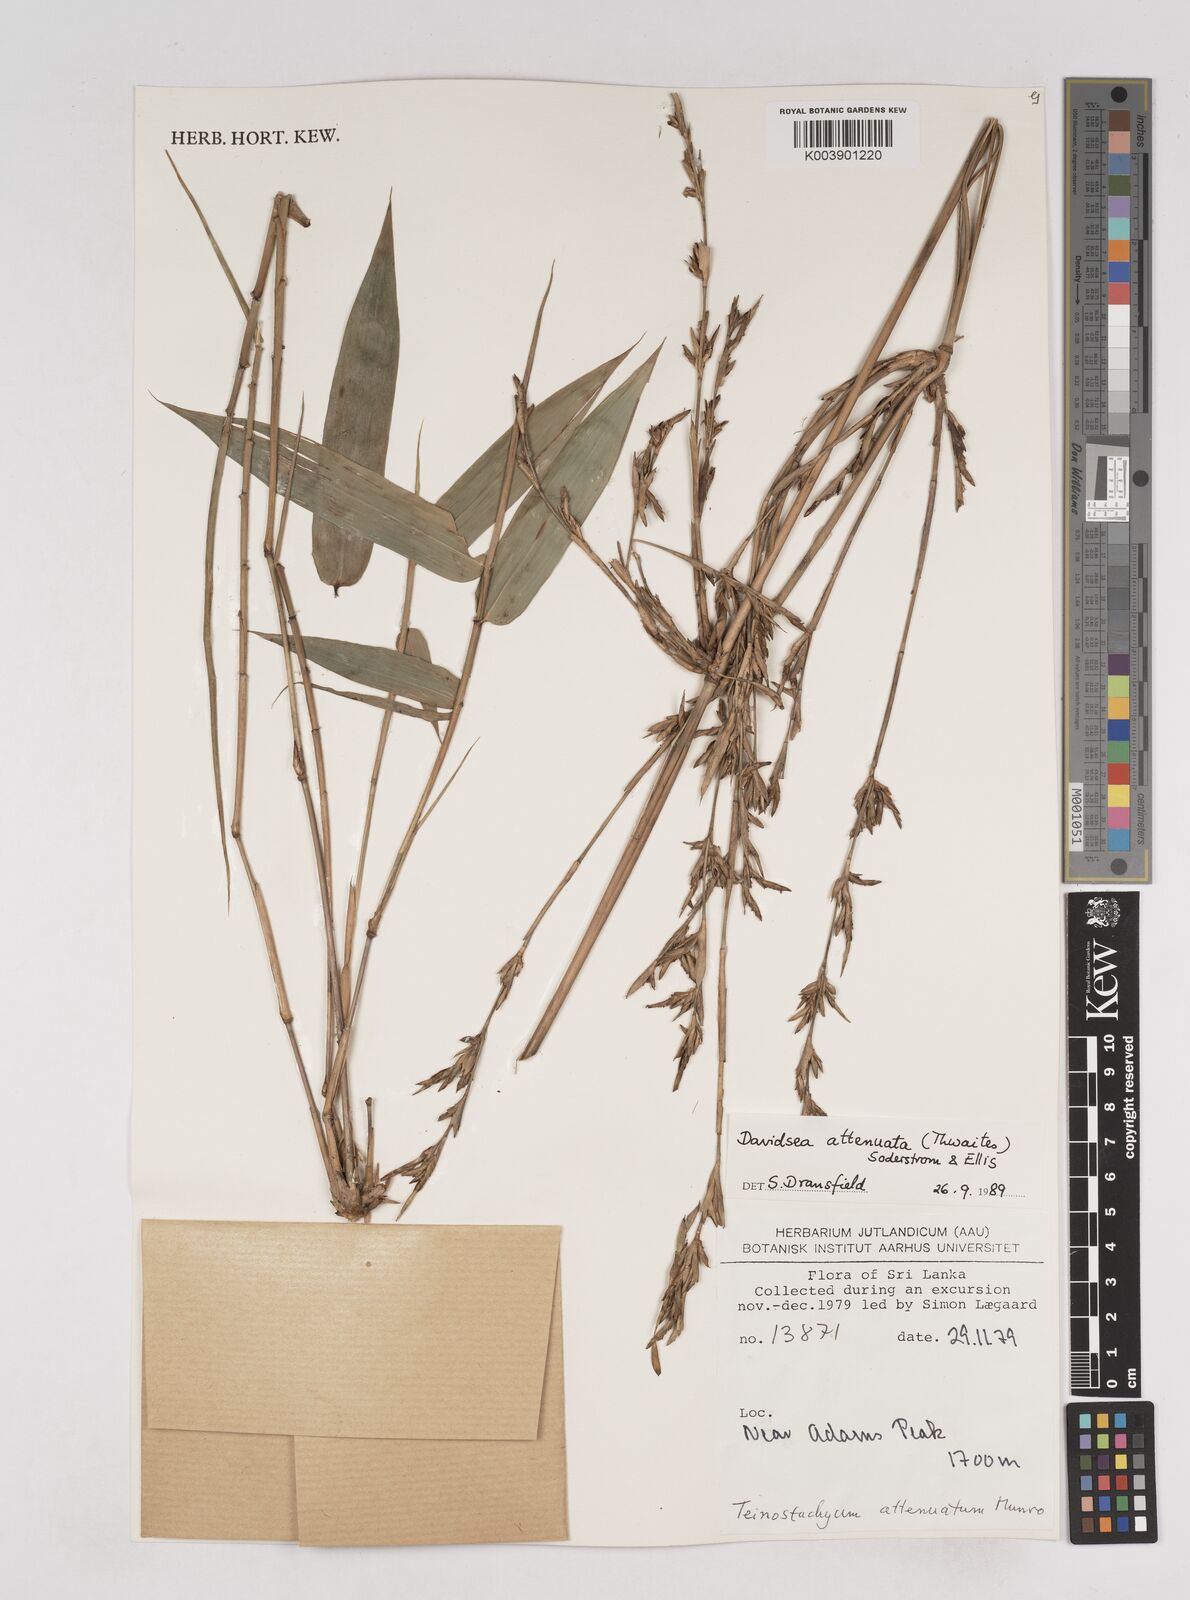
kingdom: Plantae
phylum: Tracheophyta
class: Liliopsida
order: Poales
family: Poaceae
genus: Davidsea
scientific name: Davidsea
